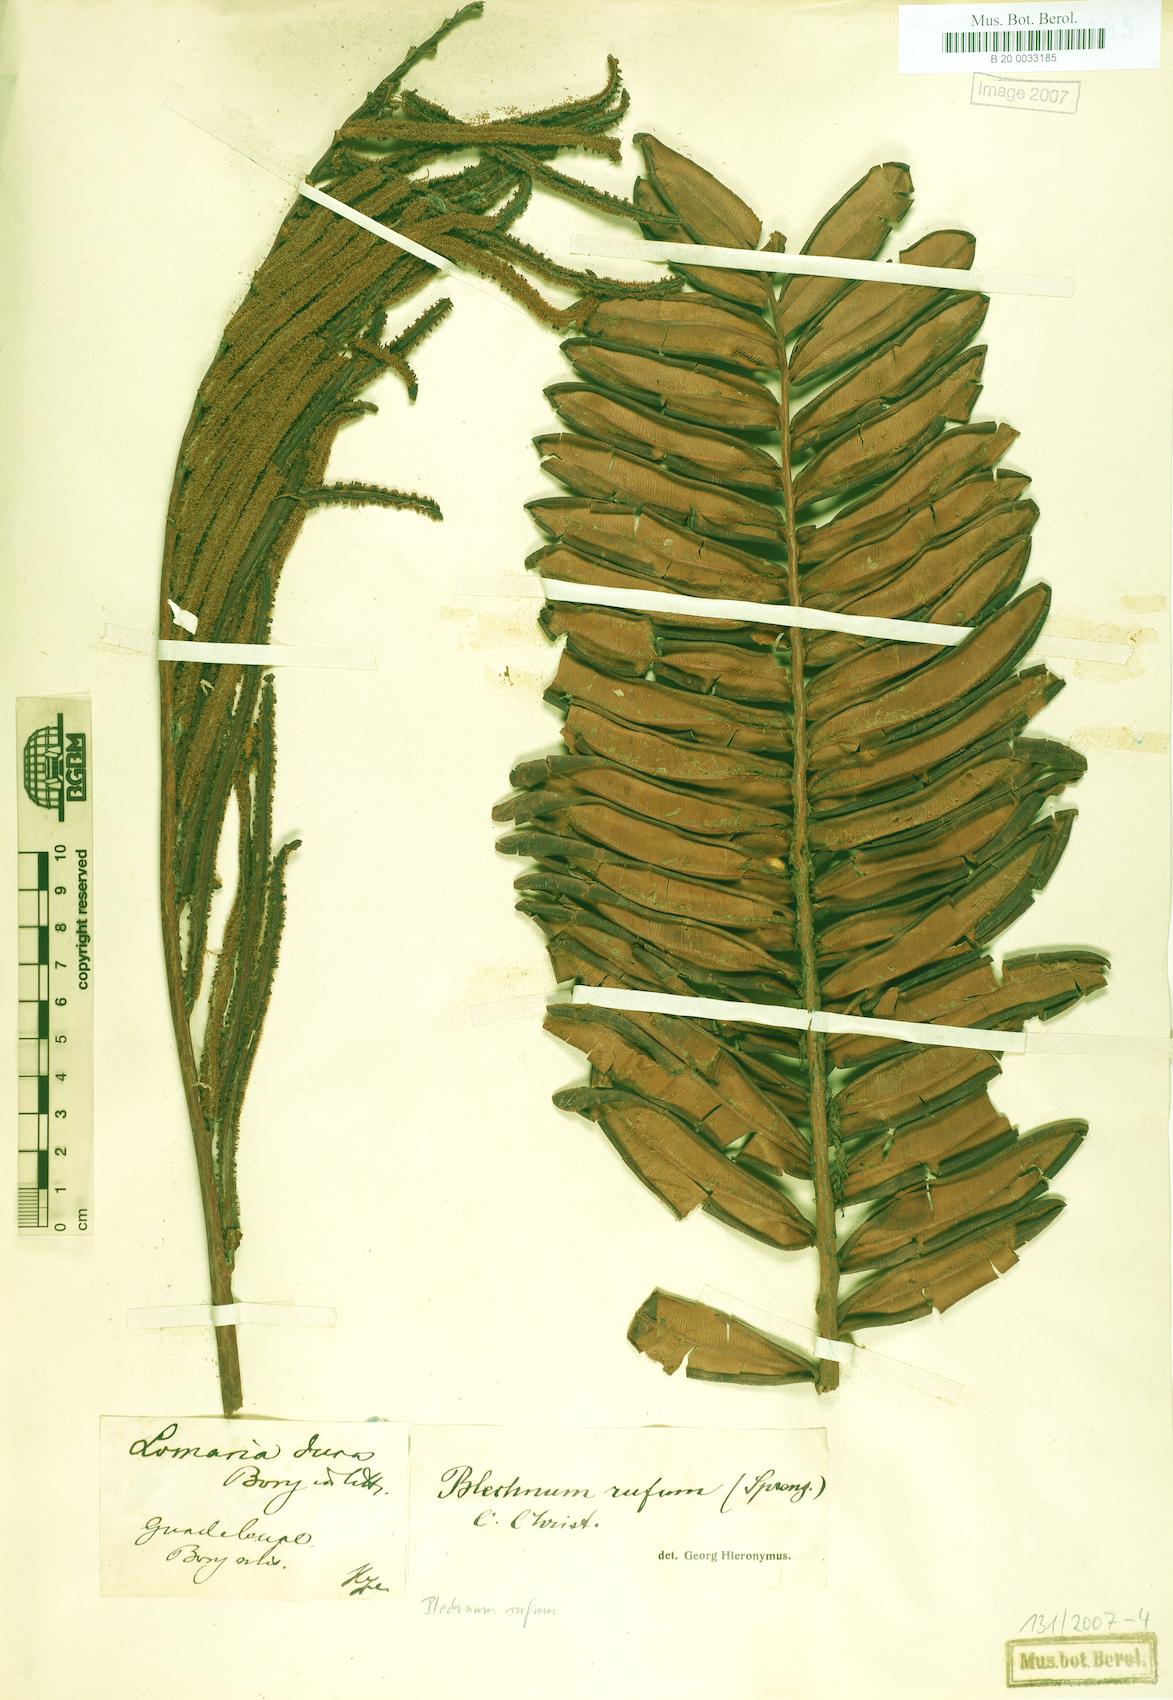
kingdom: Plantae
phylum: Tracheophyta
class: Polypodiopsida
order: Polypodiales
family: Blechnaceae
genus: Lomariocycas
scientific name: Lomariocycas rufa
